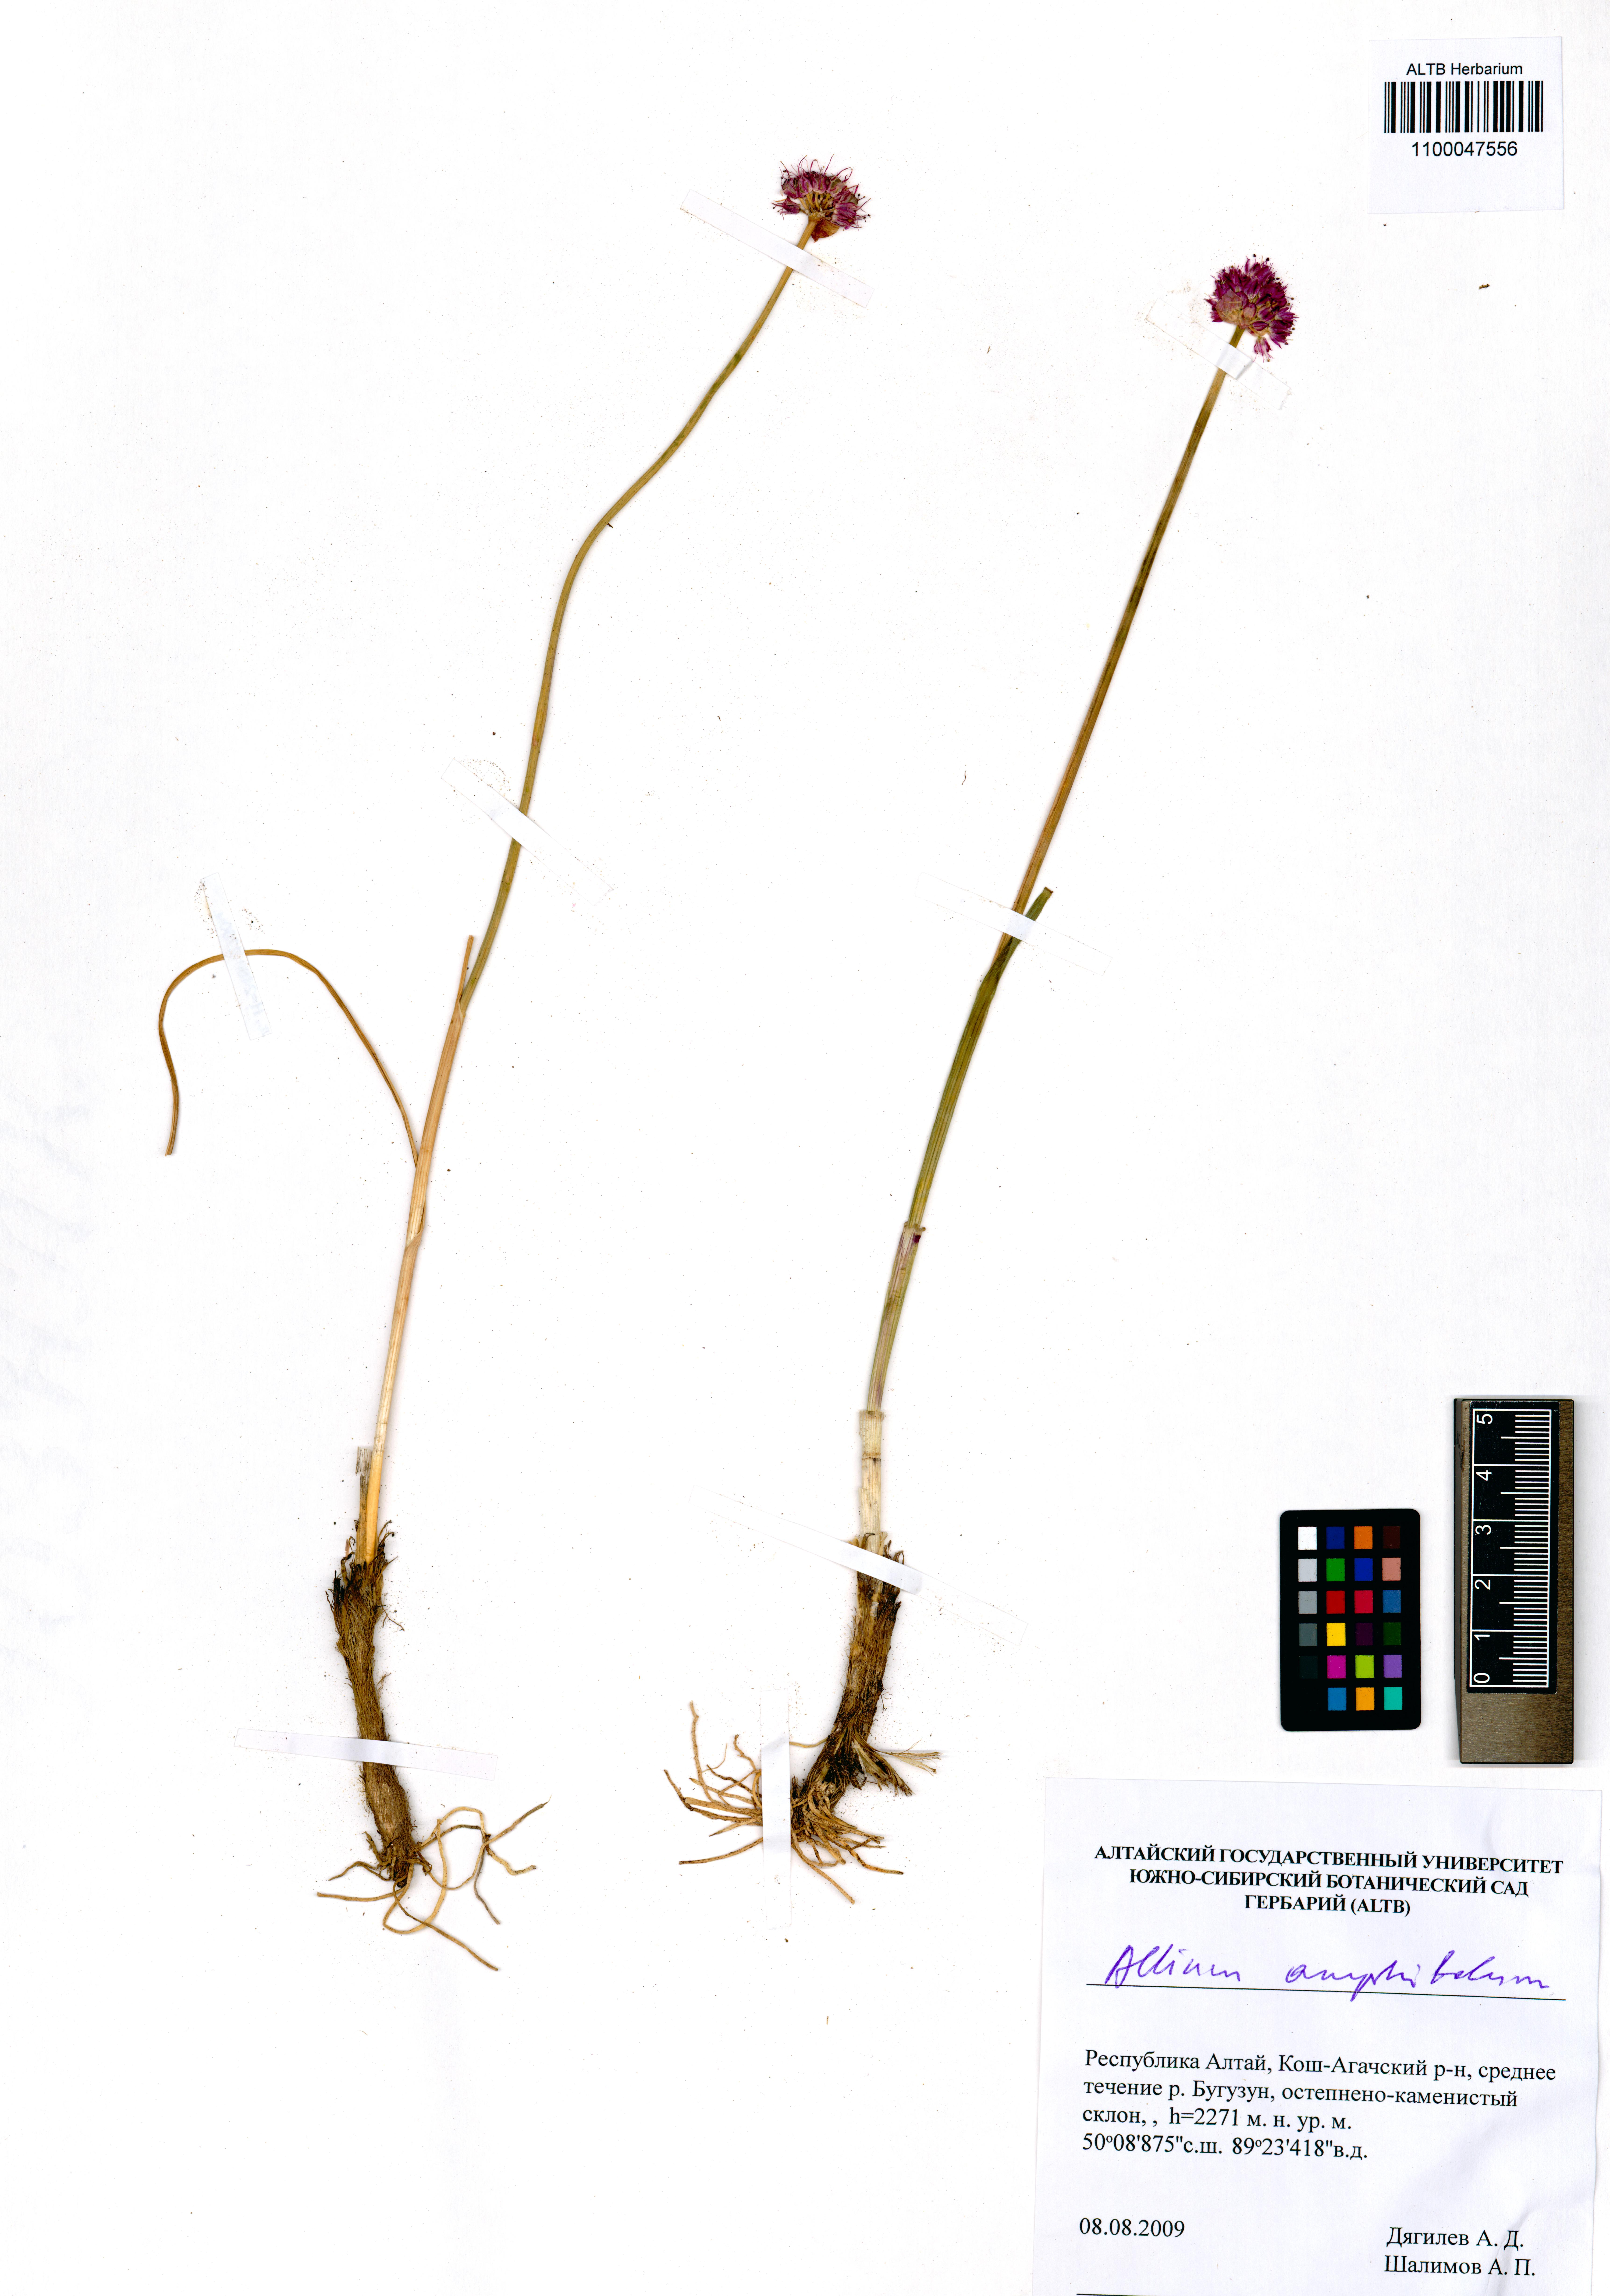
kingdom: Plantae
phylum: Tracheophyta
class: Liliopsida
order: Asparagales
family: Amaryllidaceae
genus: Allium
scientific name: Allium amphibolum
